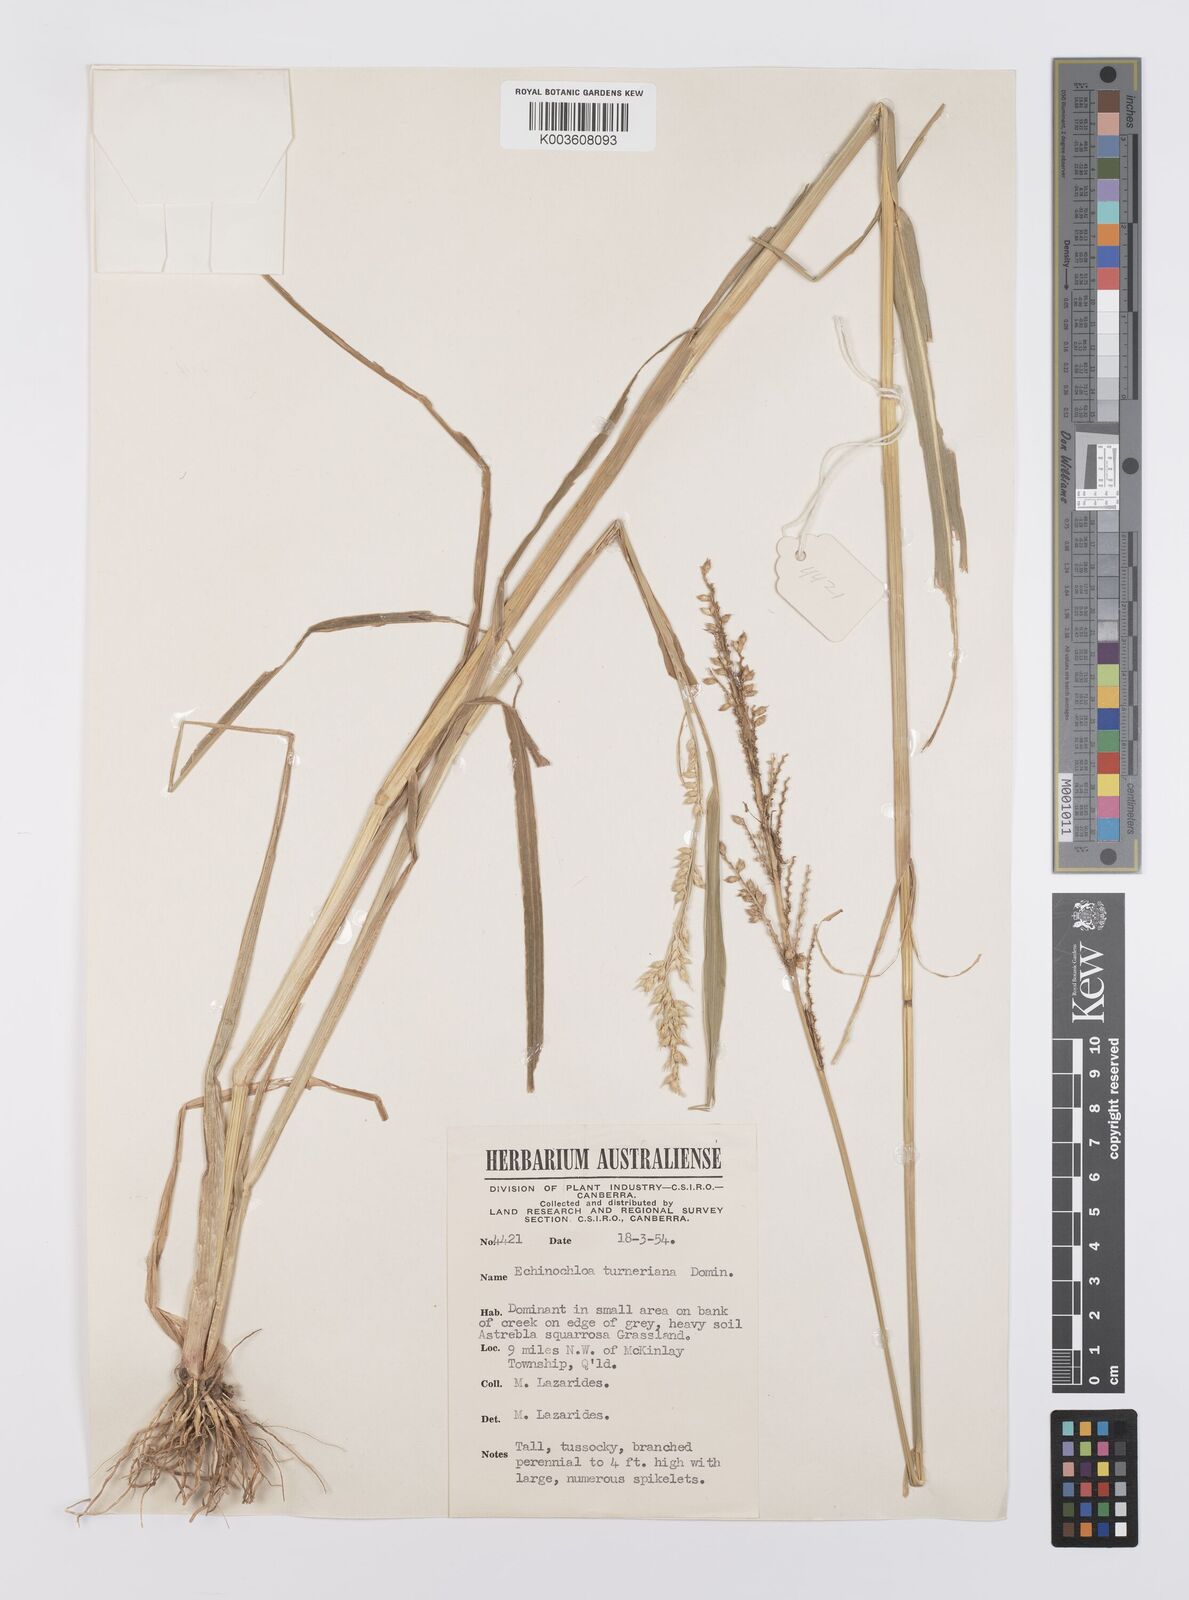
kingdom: Plantae
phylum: Tracheophyta
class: Liliopsida
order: Poales
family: Poaceae
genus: Echinochloa
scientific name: Echinochloa turneriana
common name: Channel millet
